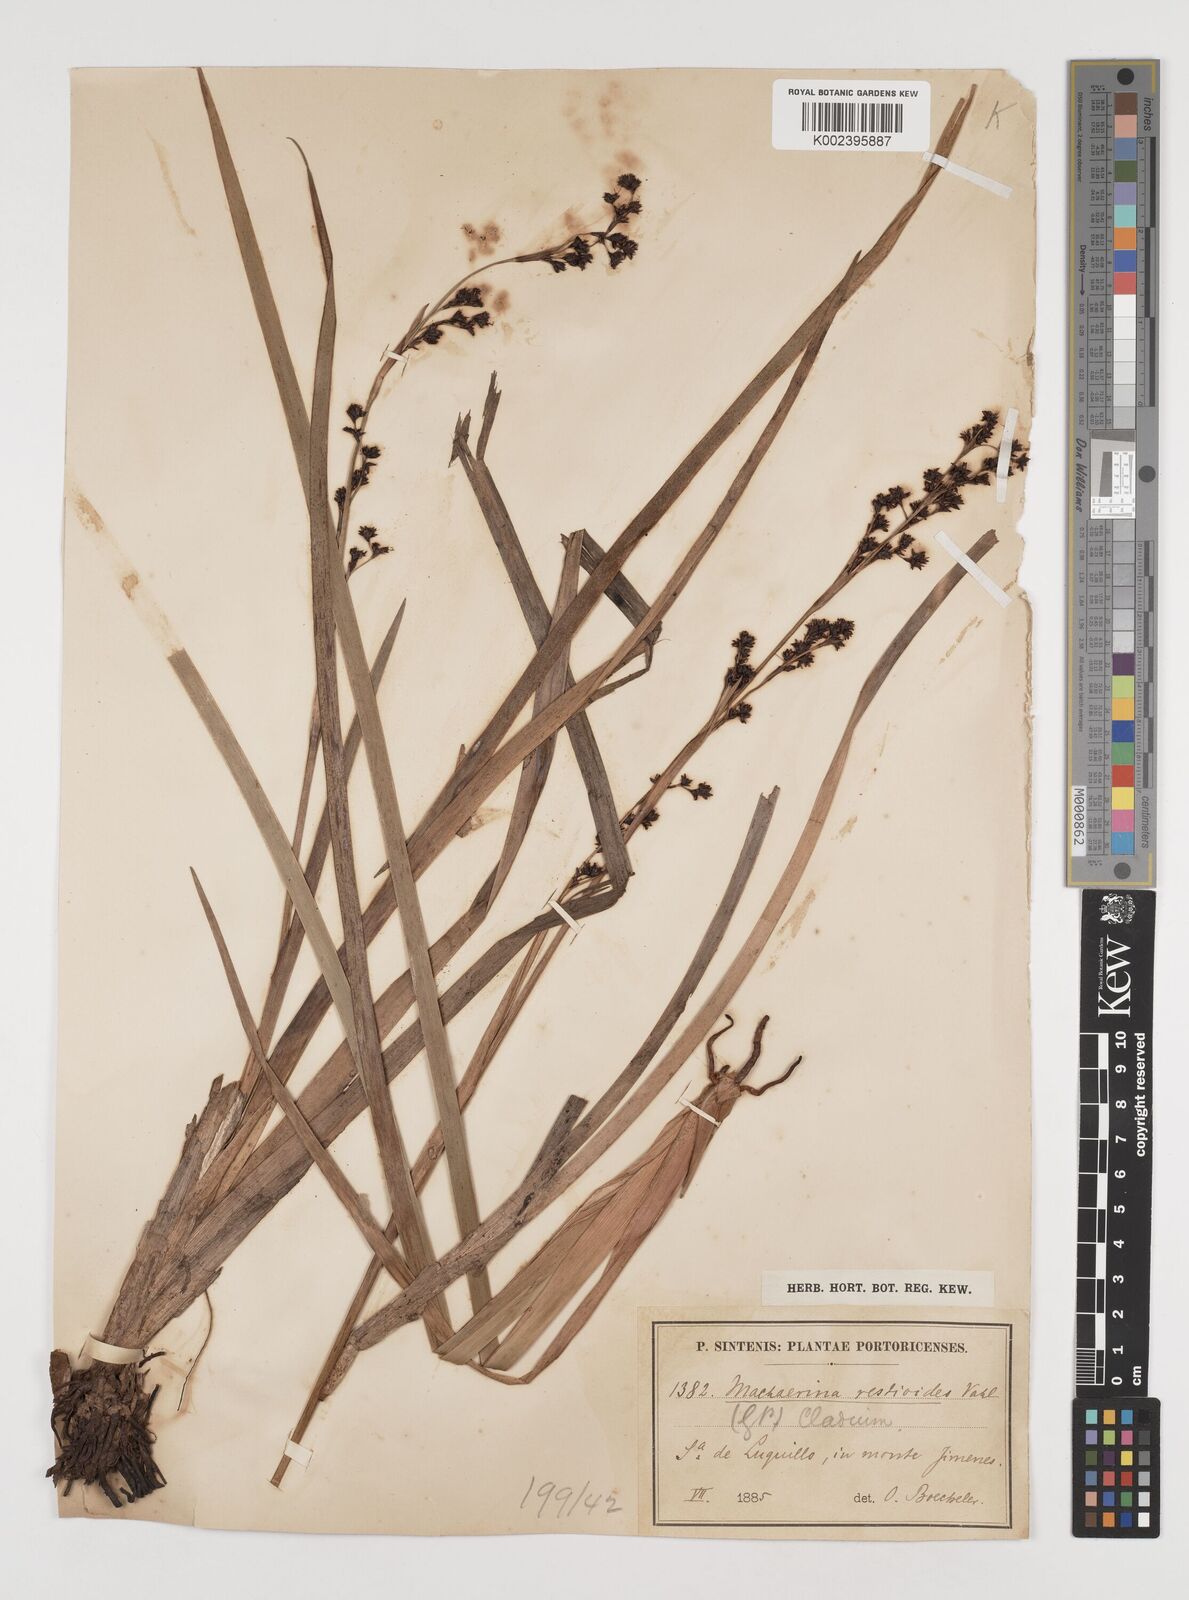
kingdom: Plantae
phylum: Tracheophyta
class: Liliopsida
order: Poales
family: Cyperaceae
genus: Machaerina
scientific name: Machaerina restioides
